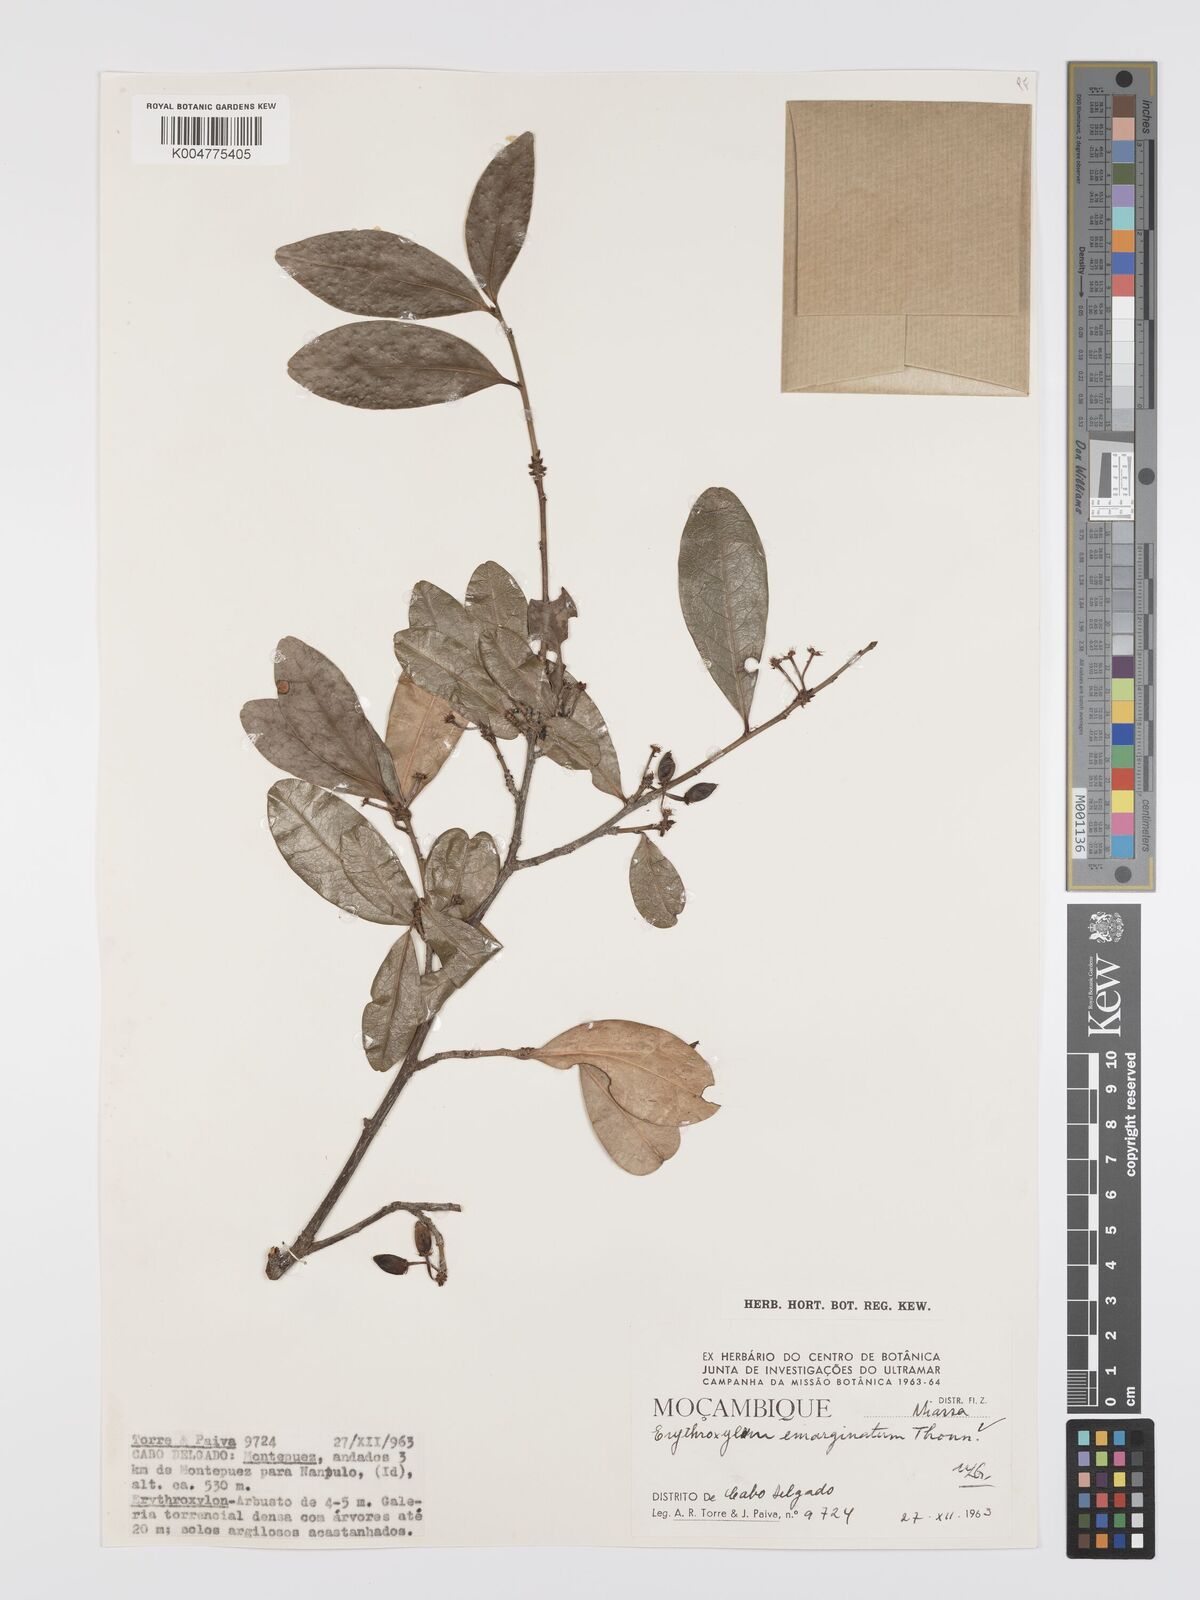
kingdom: Plantae
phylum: Tracheophyta
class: Magnoliopsida
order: Malpighiales
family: Erythroxylaceae
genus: Erythroxylum
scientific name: Erythroxylum emarginatum
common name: African coca-tree
